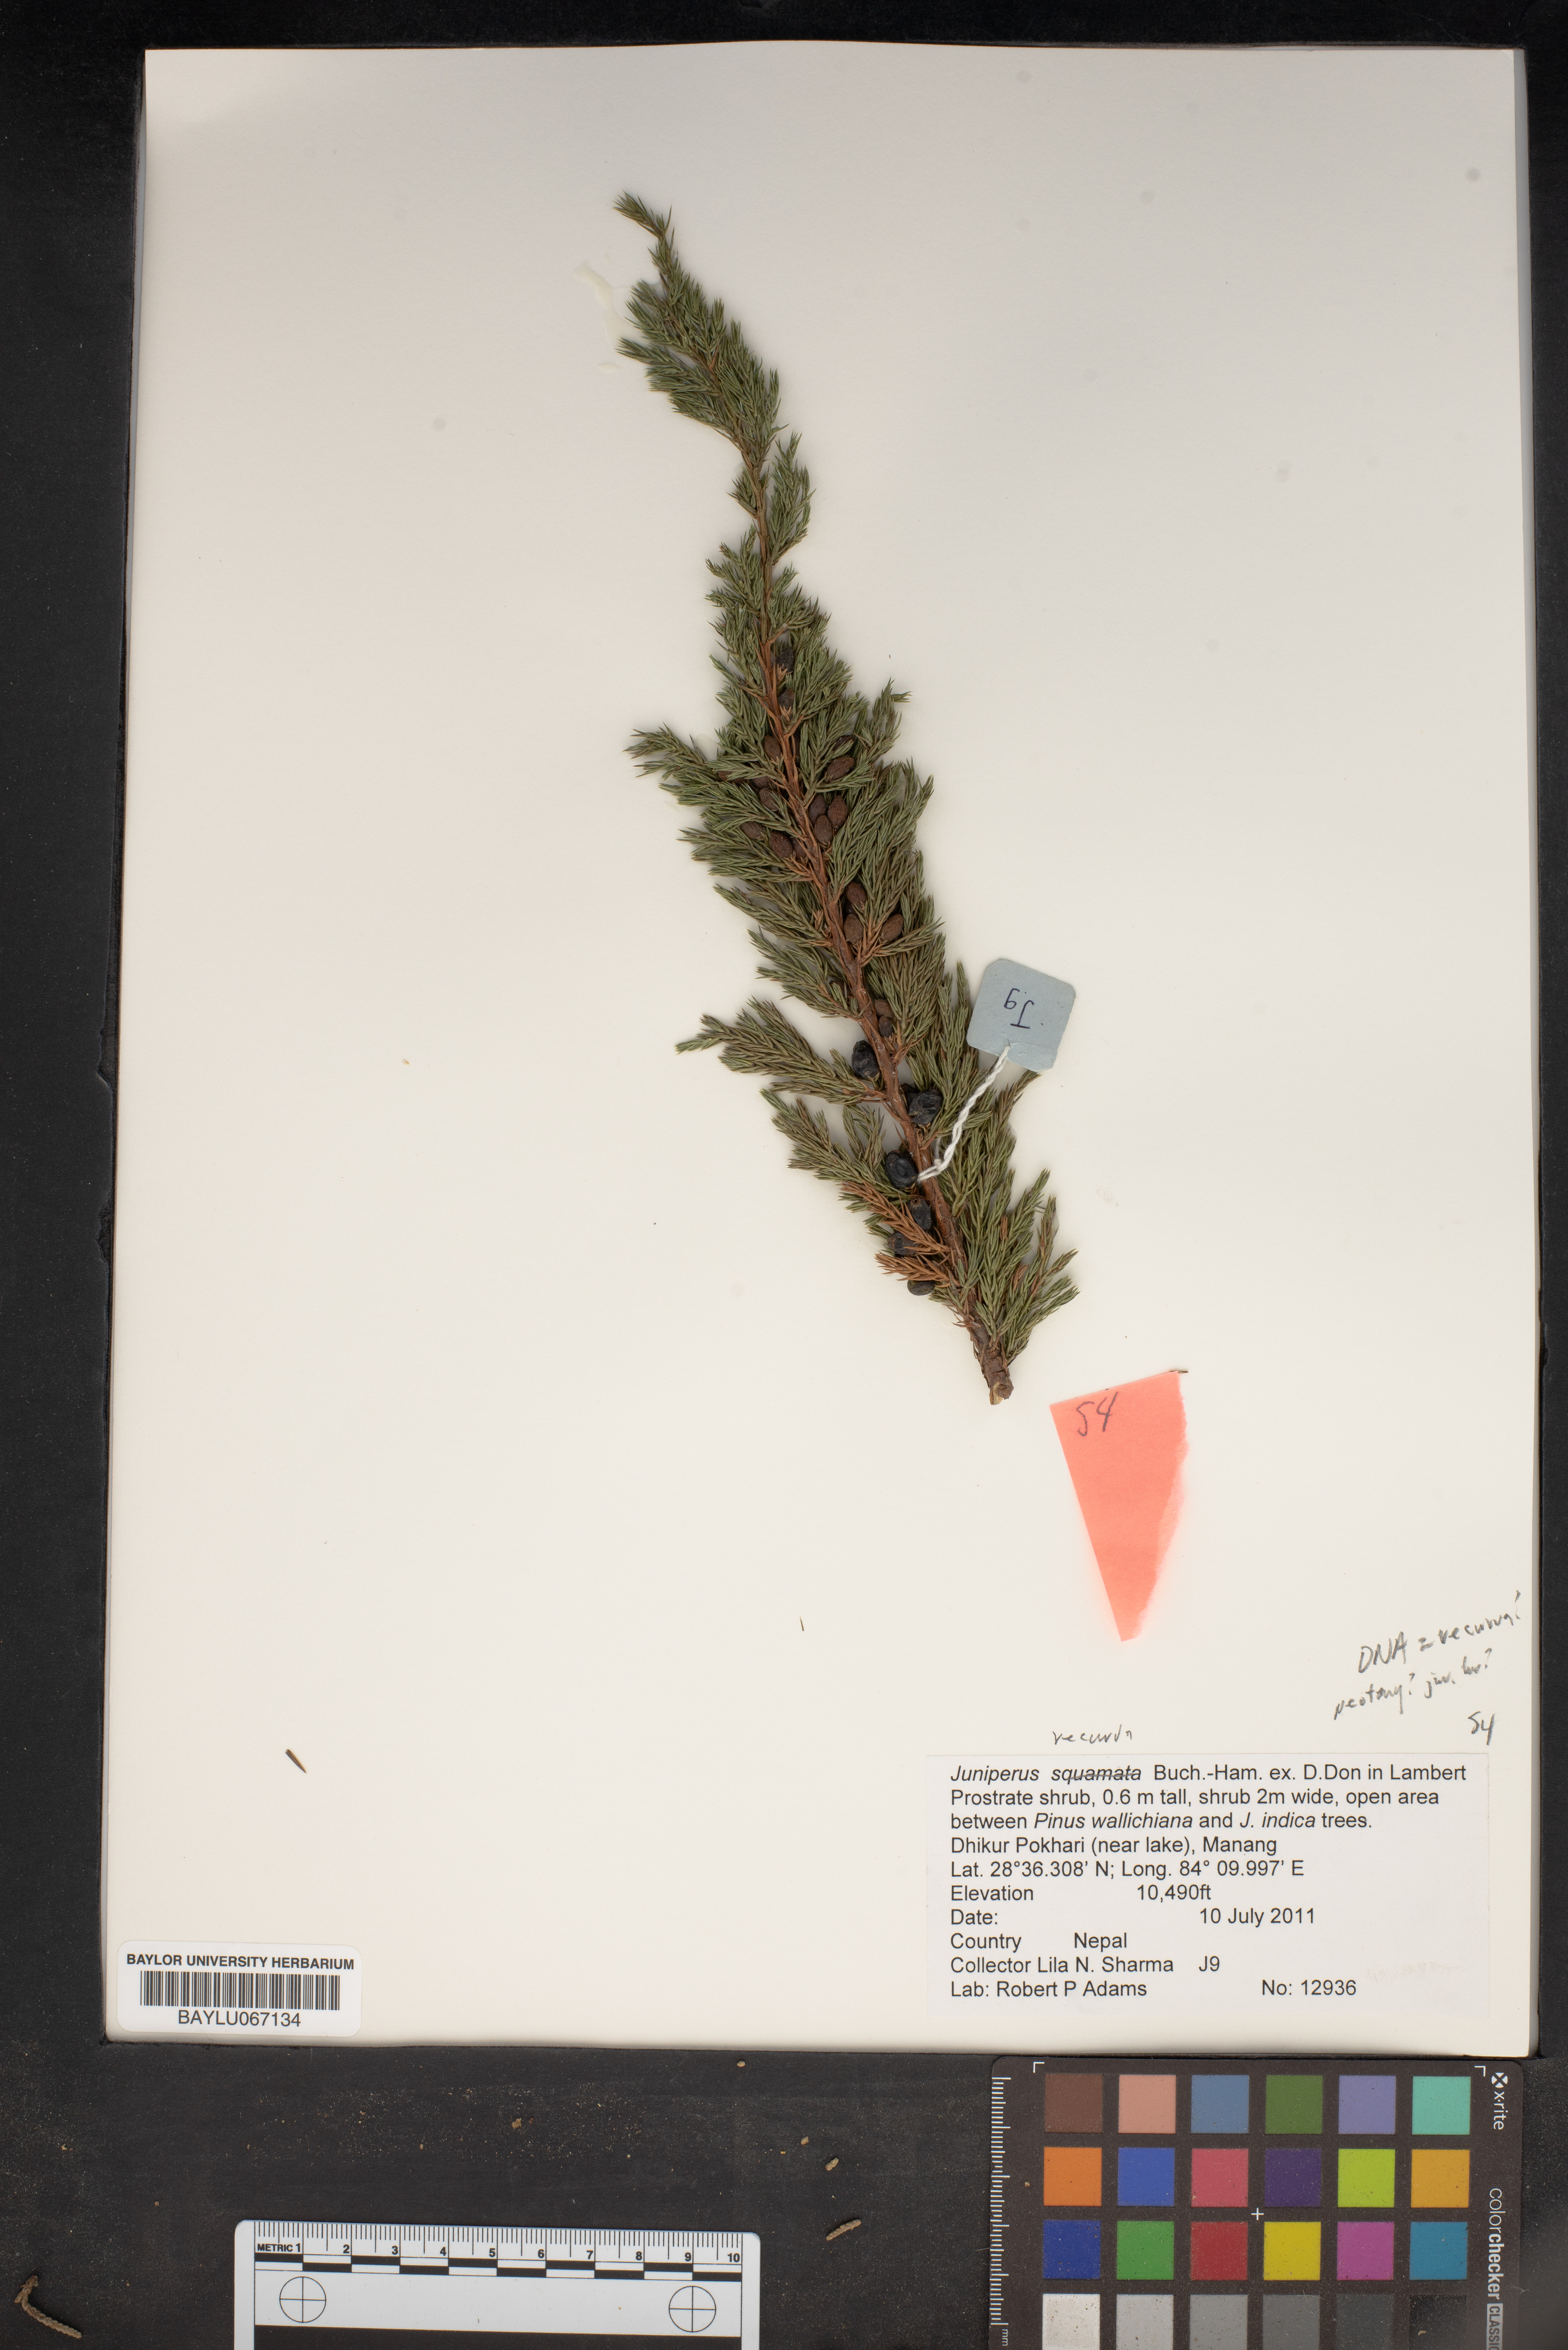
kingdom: Plantae
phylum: Tracheophyta
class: Pinopsida
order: Pinales
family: Cupressaceae
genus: Juniperus
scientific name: Juniperus recurva
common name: Drooping juniper
